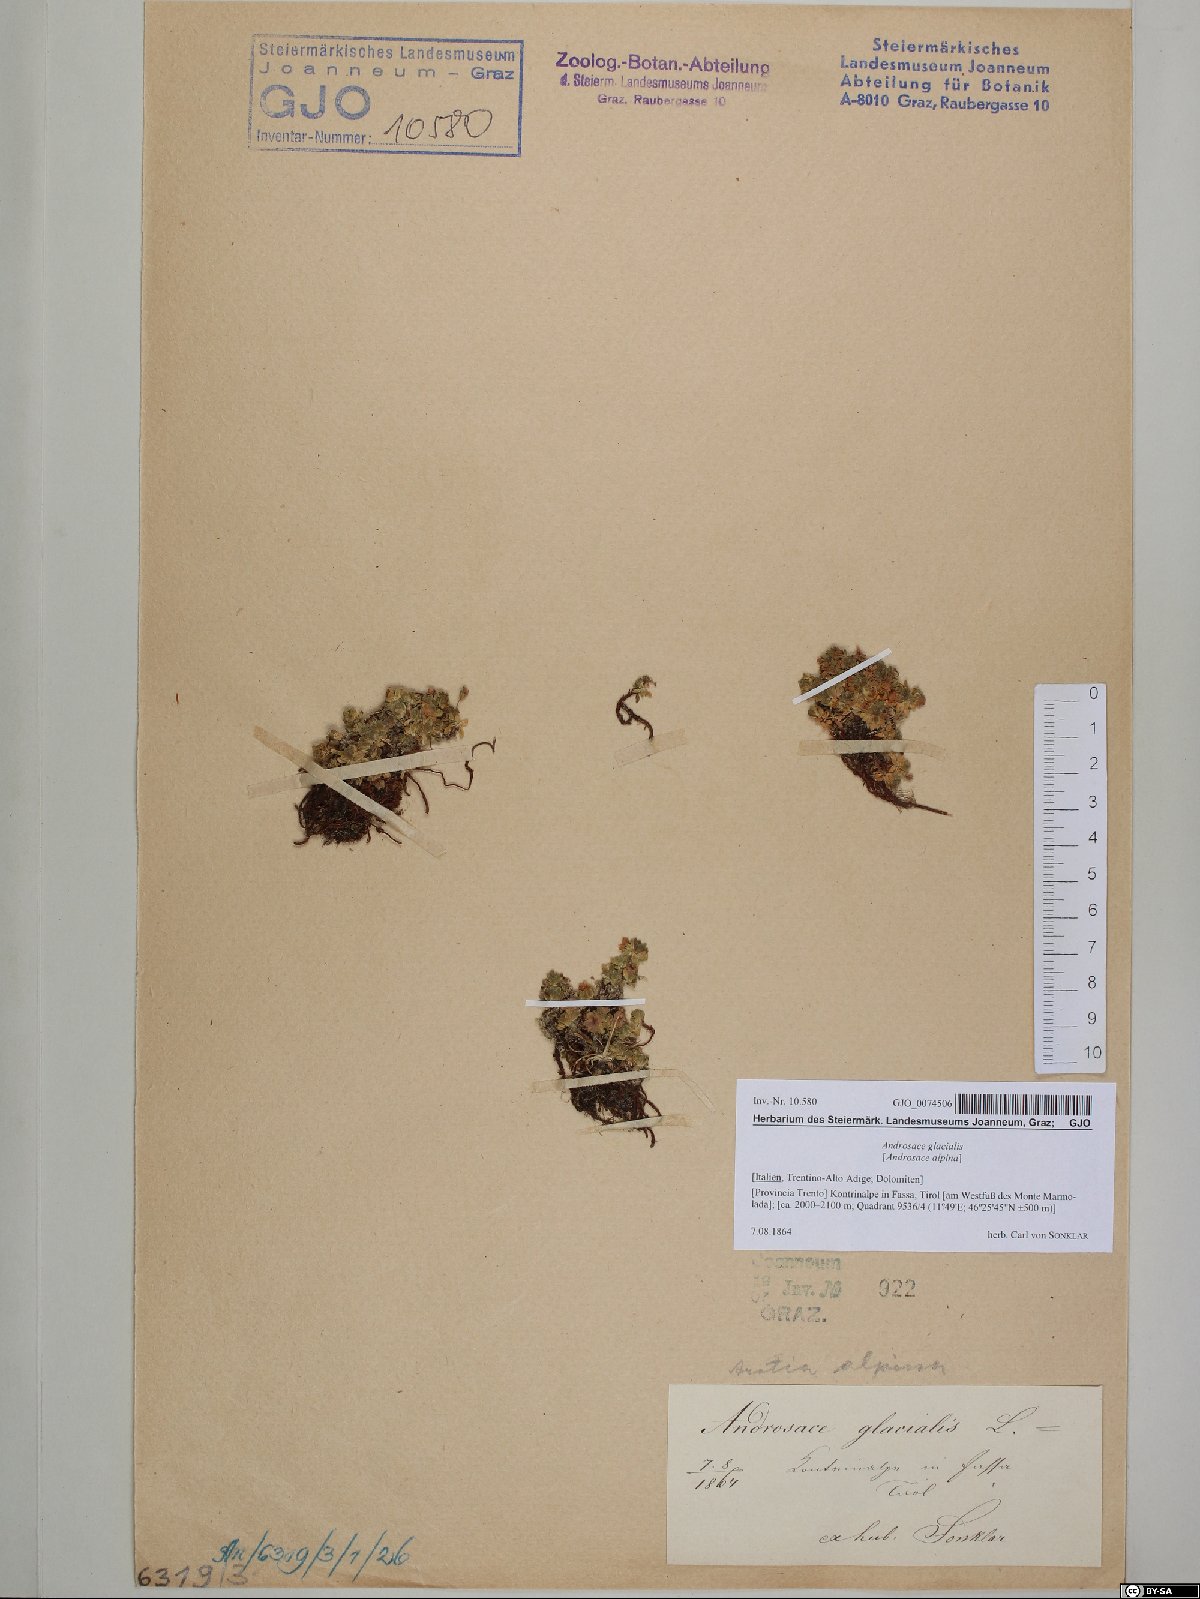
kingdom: Plantae
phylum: Tracheophyta
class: Magnoliopsida
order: Ericales
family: Primulaceae
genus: Androsace
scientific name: Androsace alpina
